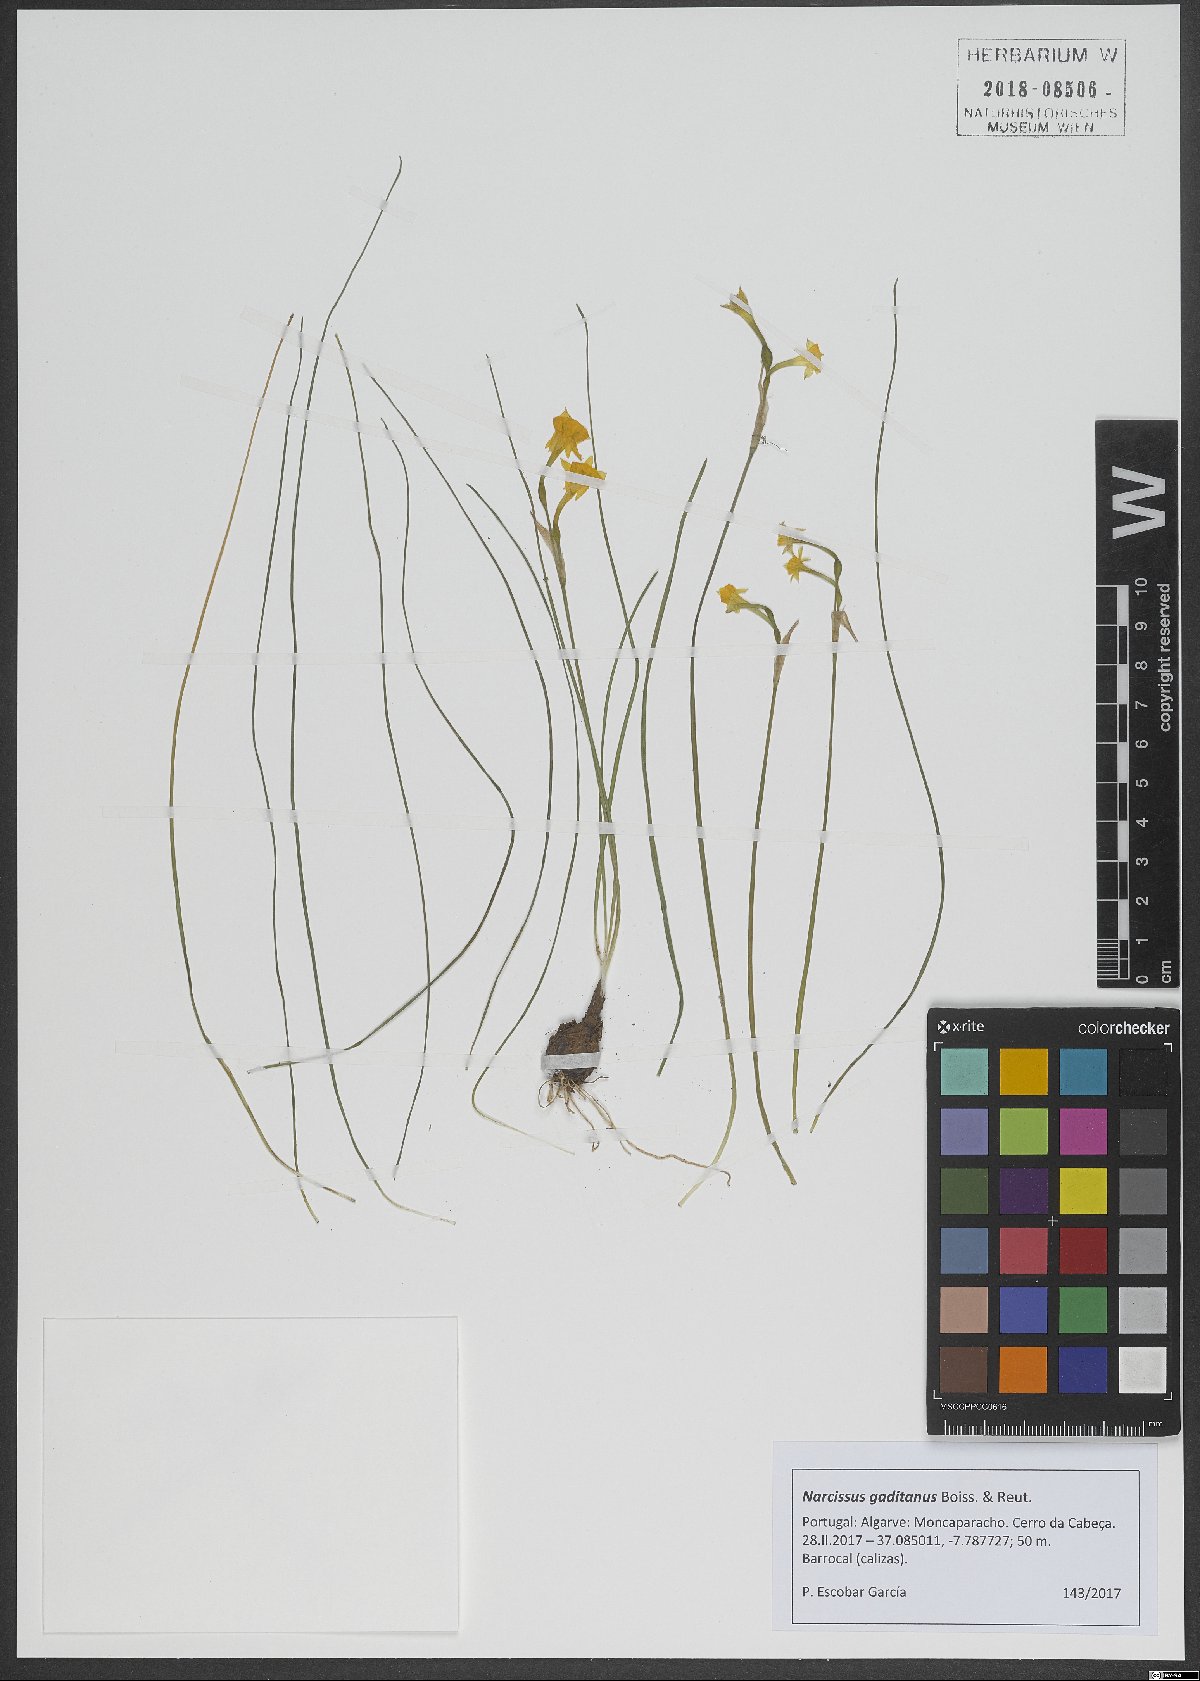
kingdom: Plantae
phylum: Tracheophyta
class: Liliopsida
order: Asparagales
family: Amaryllidaceae
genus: Narcissus
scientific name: Narcissus gaditanus
